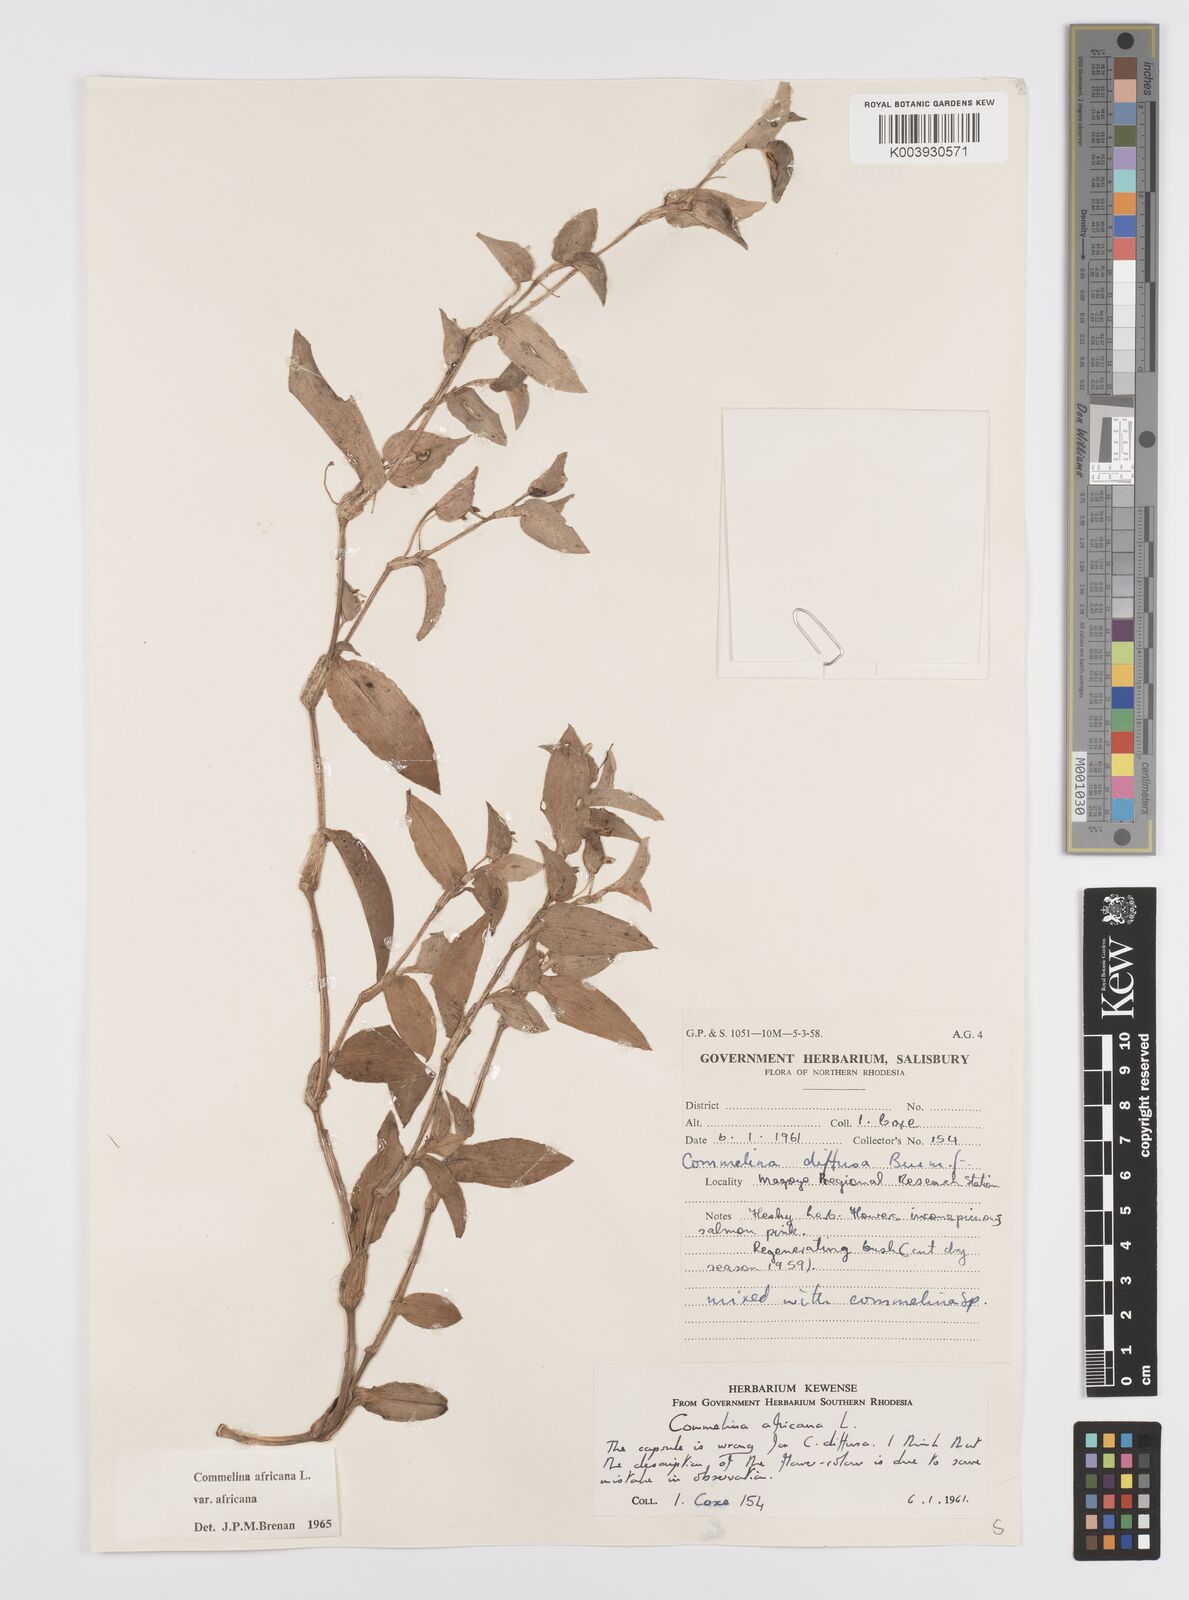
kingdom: Plantae
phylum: Tracheophyta
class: Liliopsida
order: Commelinales
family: Commelinaceae
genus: Commelina
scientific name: Commelina africana
